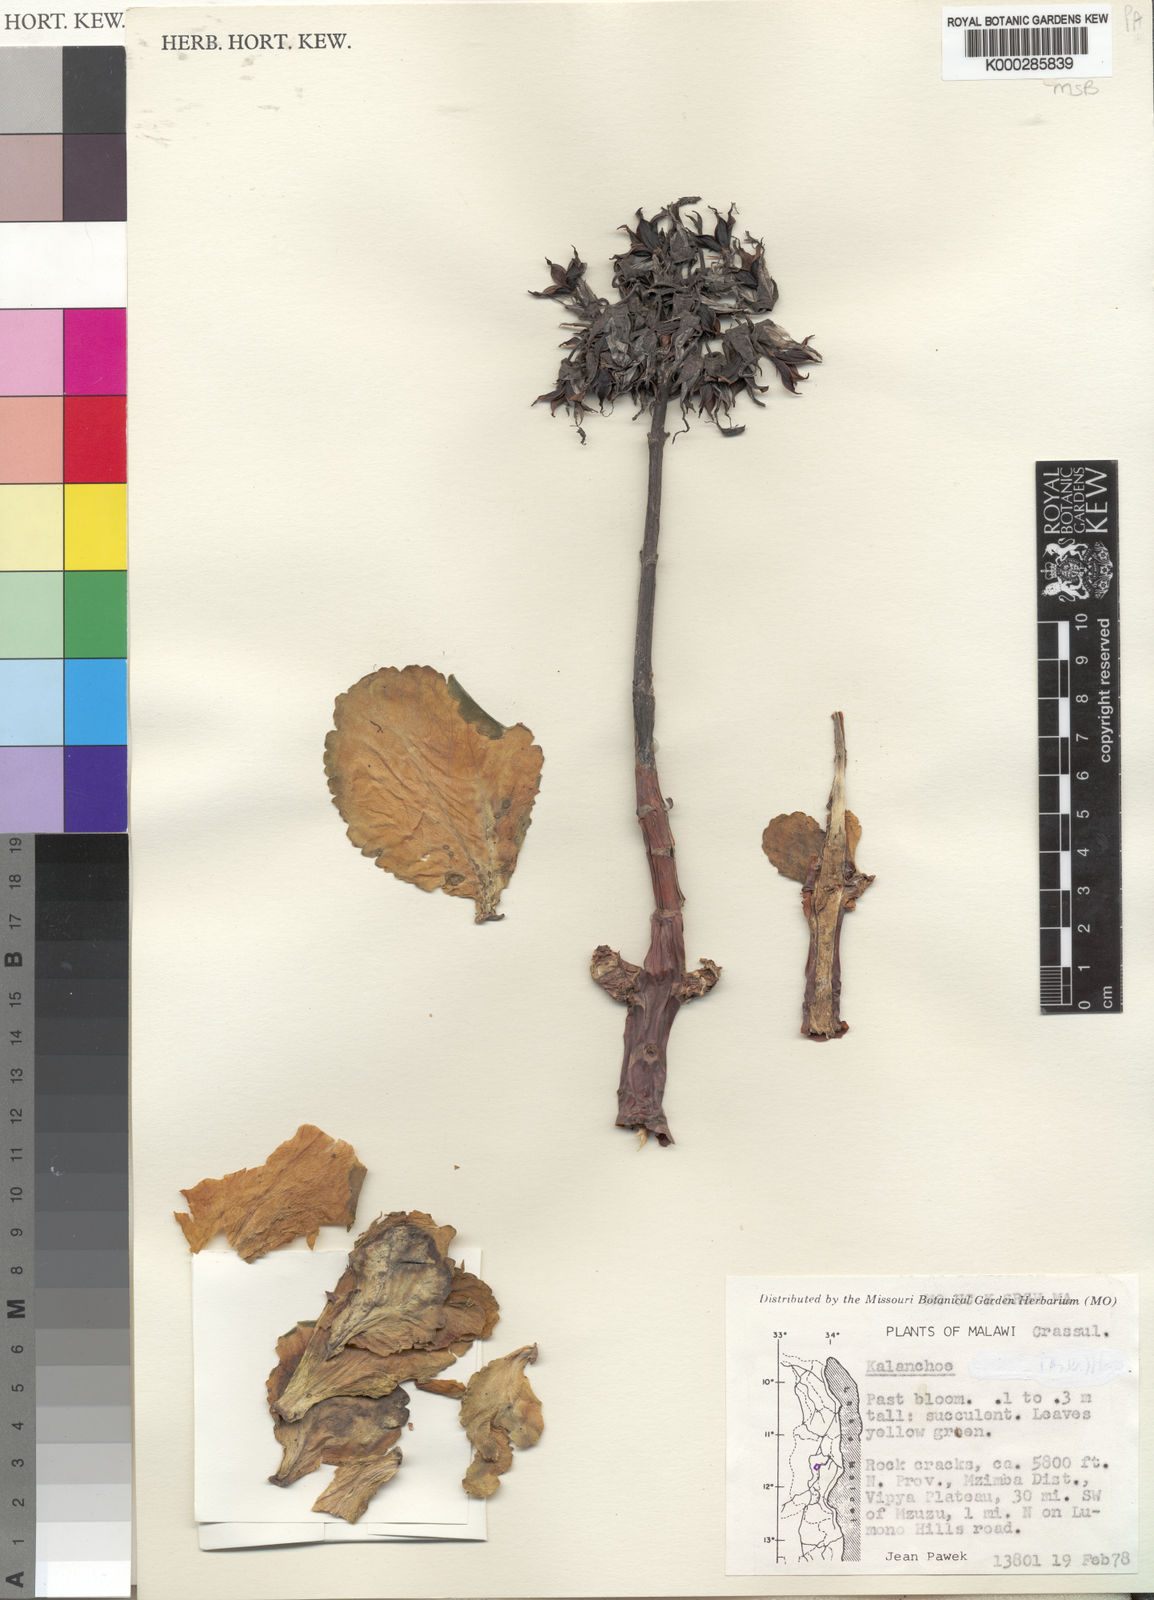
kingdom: Plantae
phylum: Tracheophyta
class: Magnoliopsida
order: Saxifragales
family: Crassulaceae
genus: Kalanchoe
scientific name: Kalanchoe crenata
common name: Neverdie
